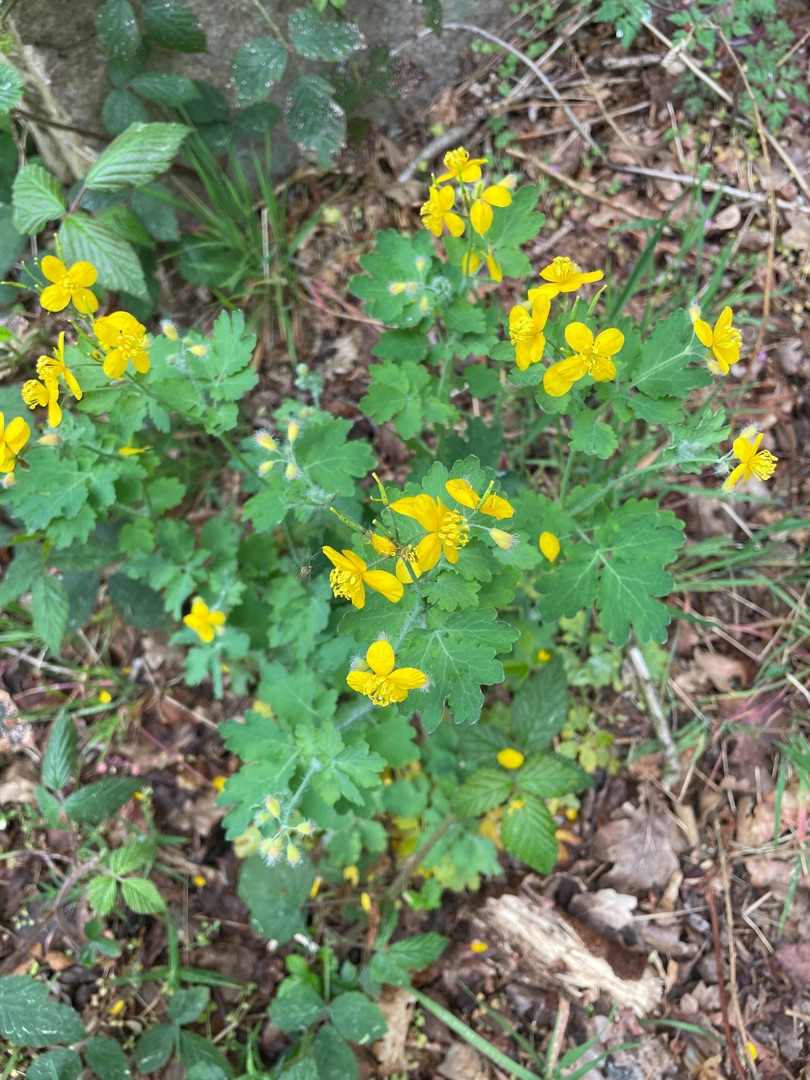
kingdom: Plantae
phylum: Tracheophyta
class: Magnoliopsida
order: Ranunculales
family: Papaveraceae
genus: Chelidonium
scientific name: Chelidonium majus
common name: Svaleurt
